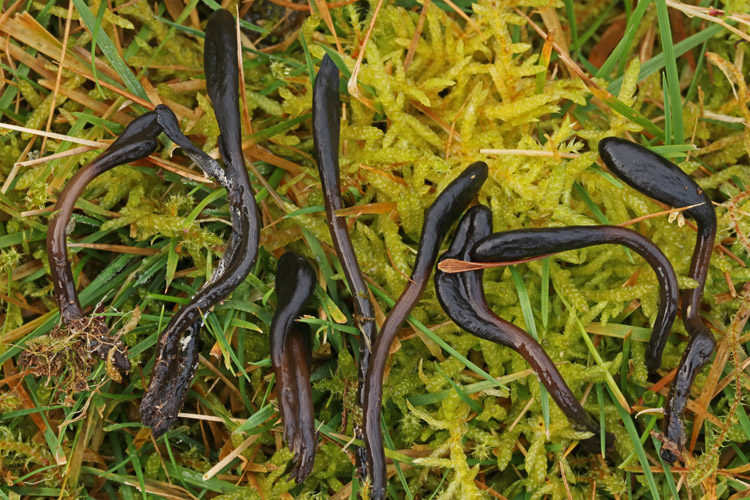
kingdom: Fungi
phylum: Ascomycota
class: Geoglossomycetes
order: Geoglossales
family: Geoglossaceae
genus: Glutinoglossum
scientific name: Glutinoglossum glutinosum
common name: slimet jordtunge
